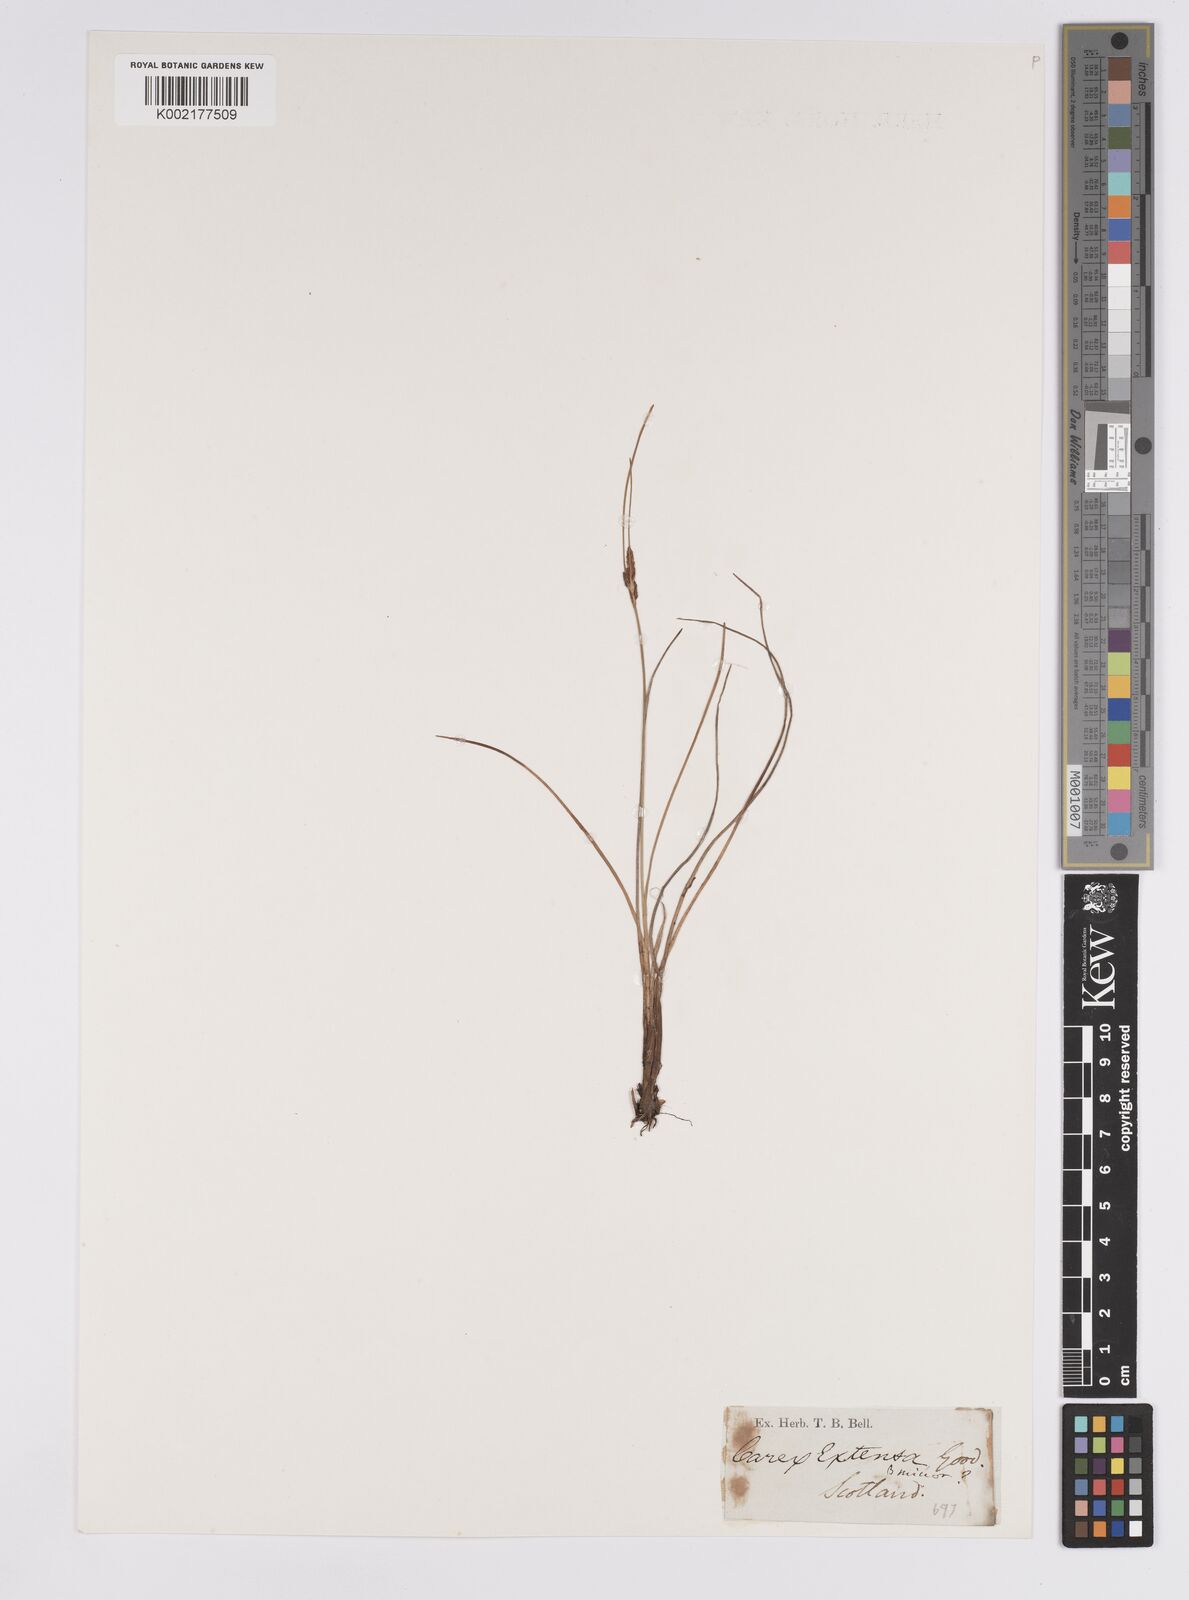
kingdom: Plantae
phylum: Tracheophyta
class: Liliopsida
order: Poales
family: Cyperaceae
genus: Carex
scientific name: Carex extensa
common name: Long-bracted sedge
